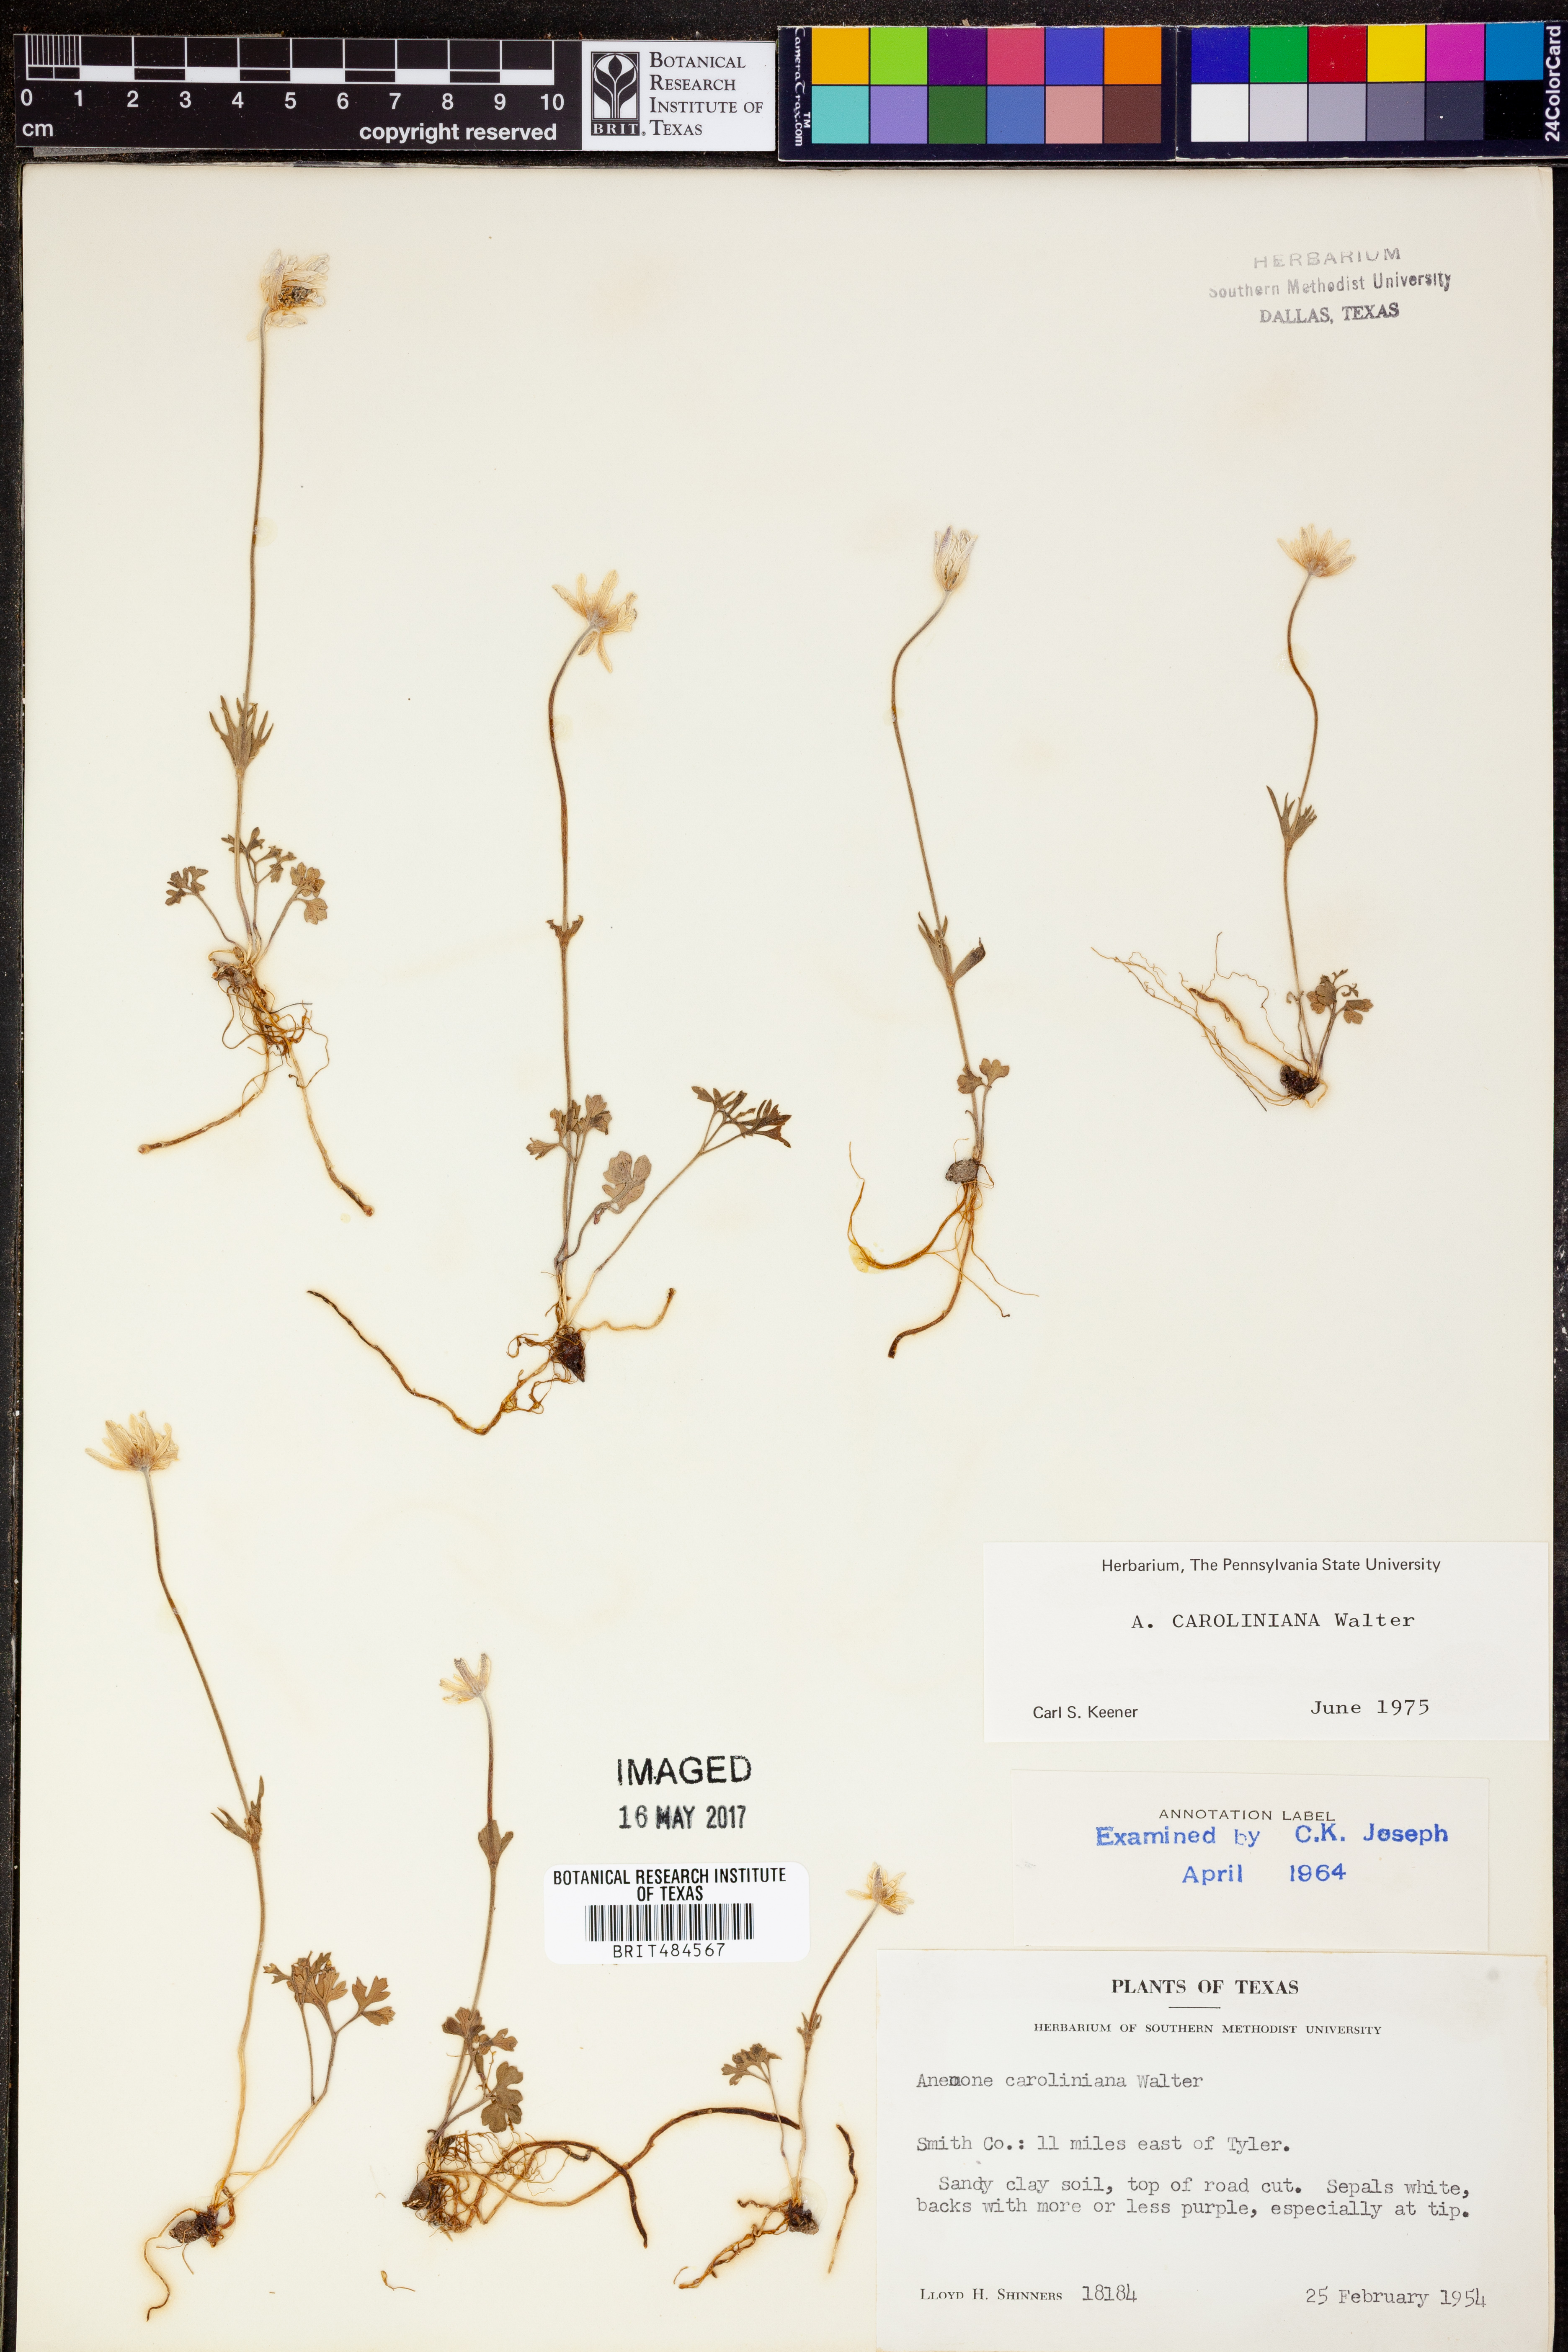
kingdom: Plantae
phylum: Tracheophyta
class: Magnoliopsida
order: Ranunculales
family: Ranunculaceae
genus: Anemone
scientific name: Anemone caroliniana
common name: Carolina anemone
